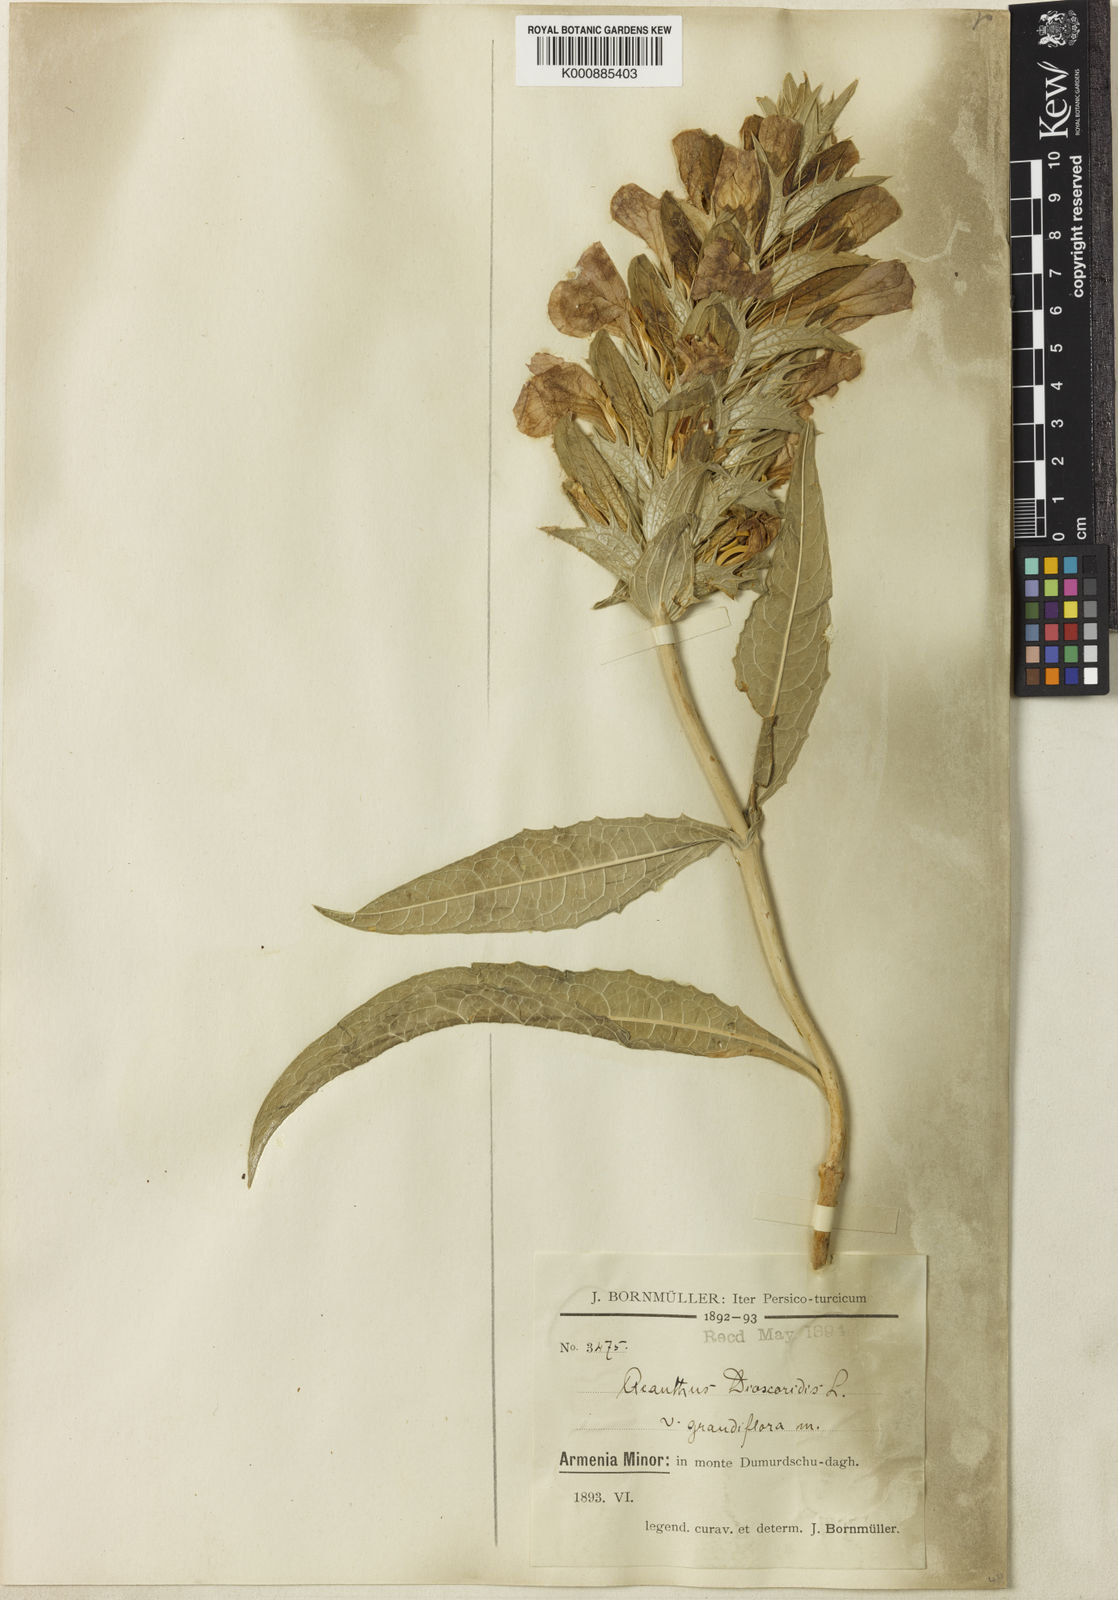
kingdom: Plantae
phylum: Tracheophyta
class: Magnoliopsida
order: Lamiales
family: Acanthaceae
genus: Acanthus
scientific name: Acanthus dioscoridis
